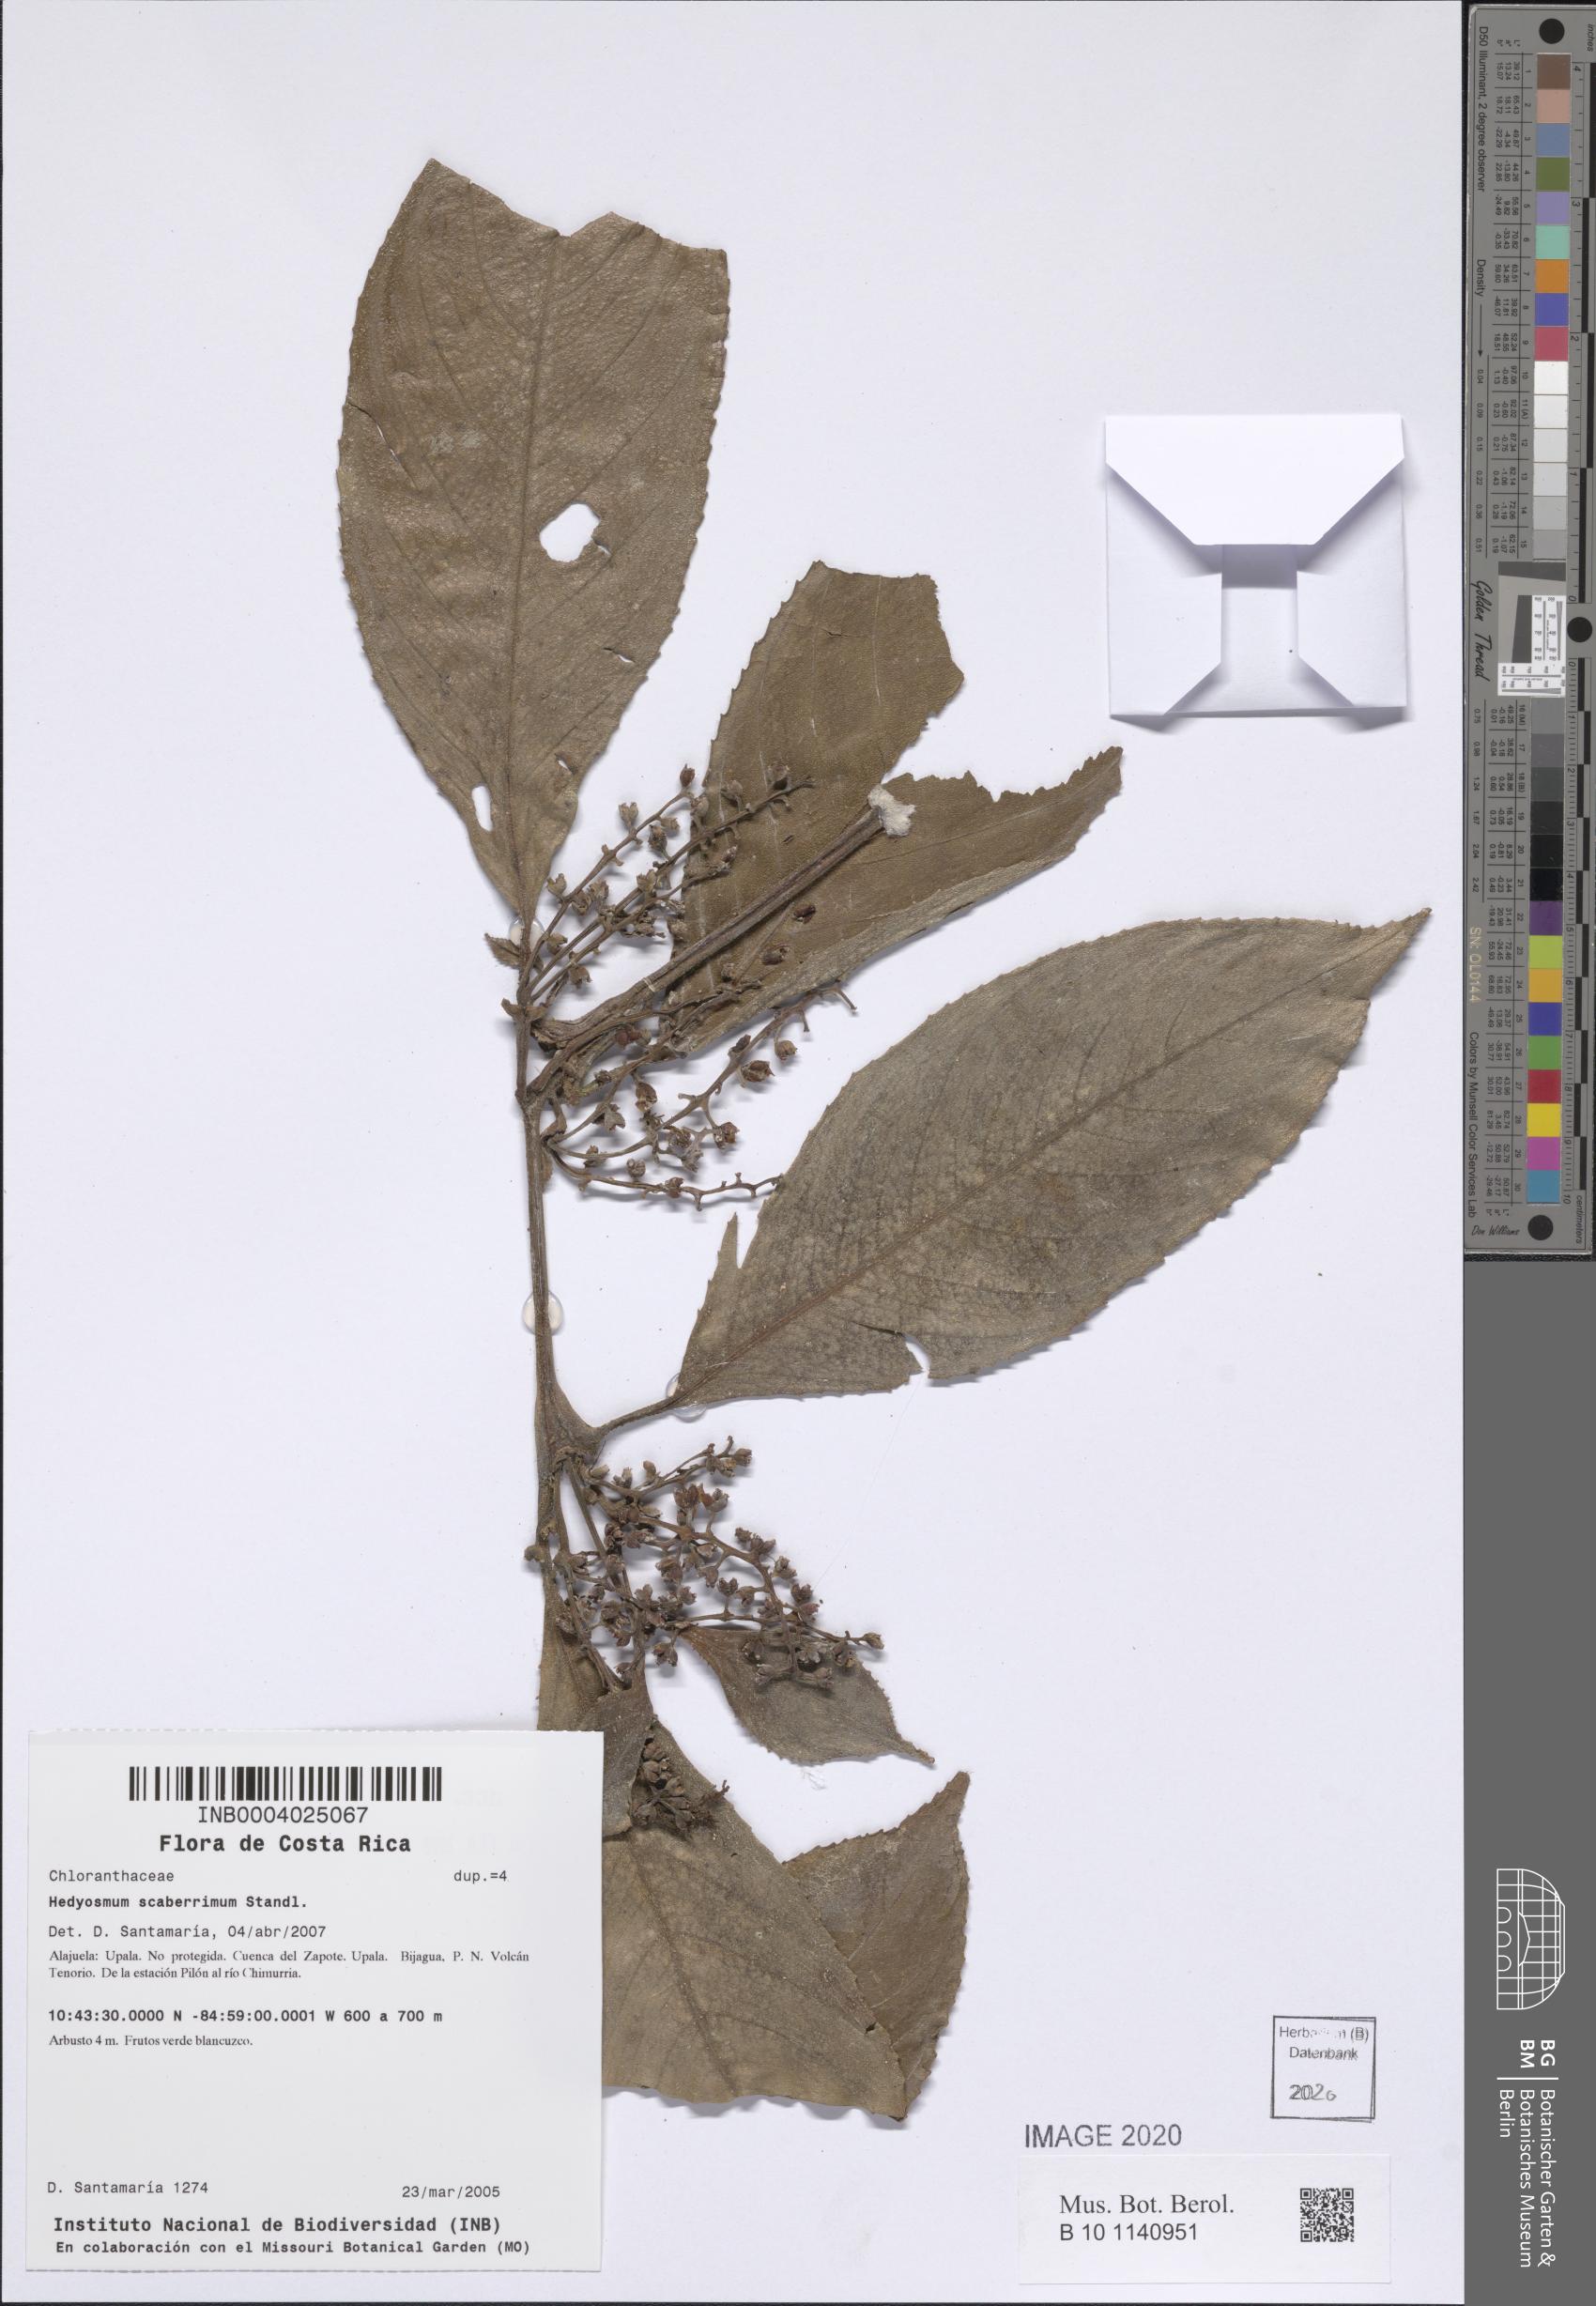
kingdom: Plantae
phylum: Tracheophyta
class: Magnoliopsida
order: Chloranthales
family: Chloranthaceae
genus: Hedyosmum
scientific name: Hedyosmum scaberrimum
